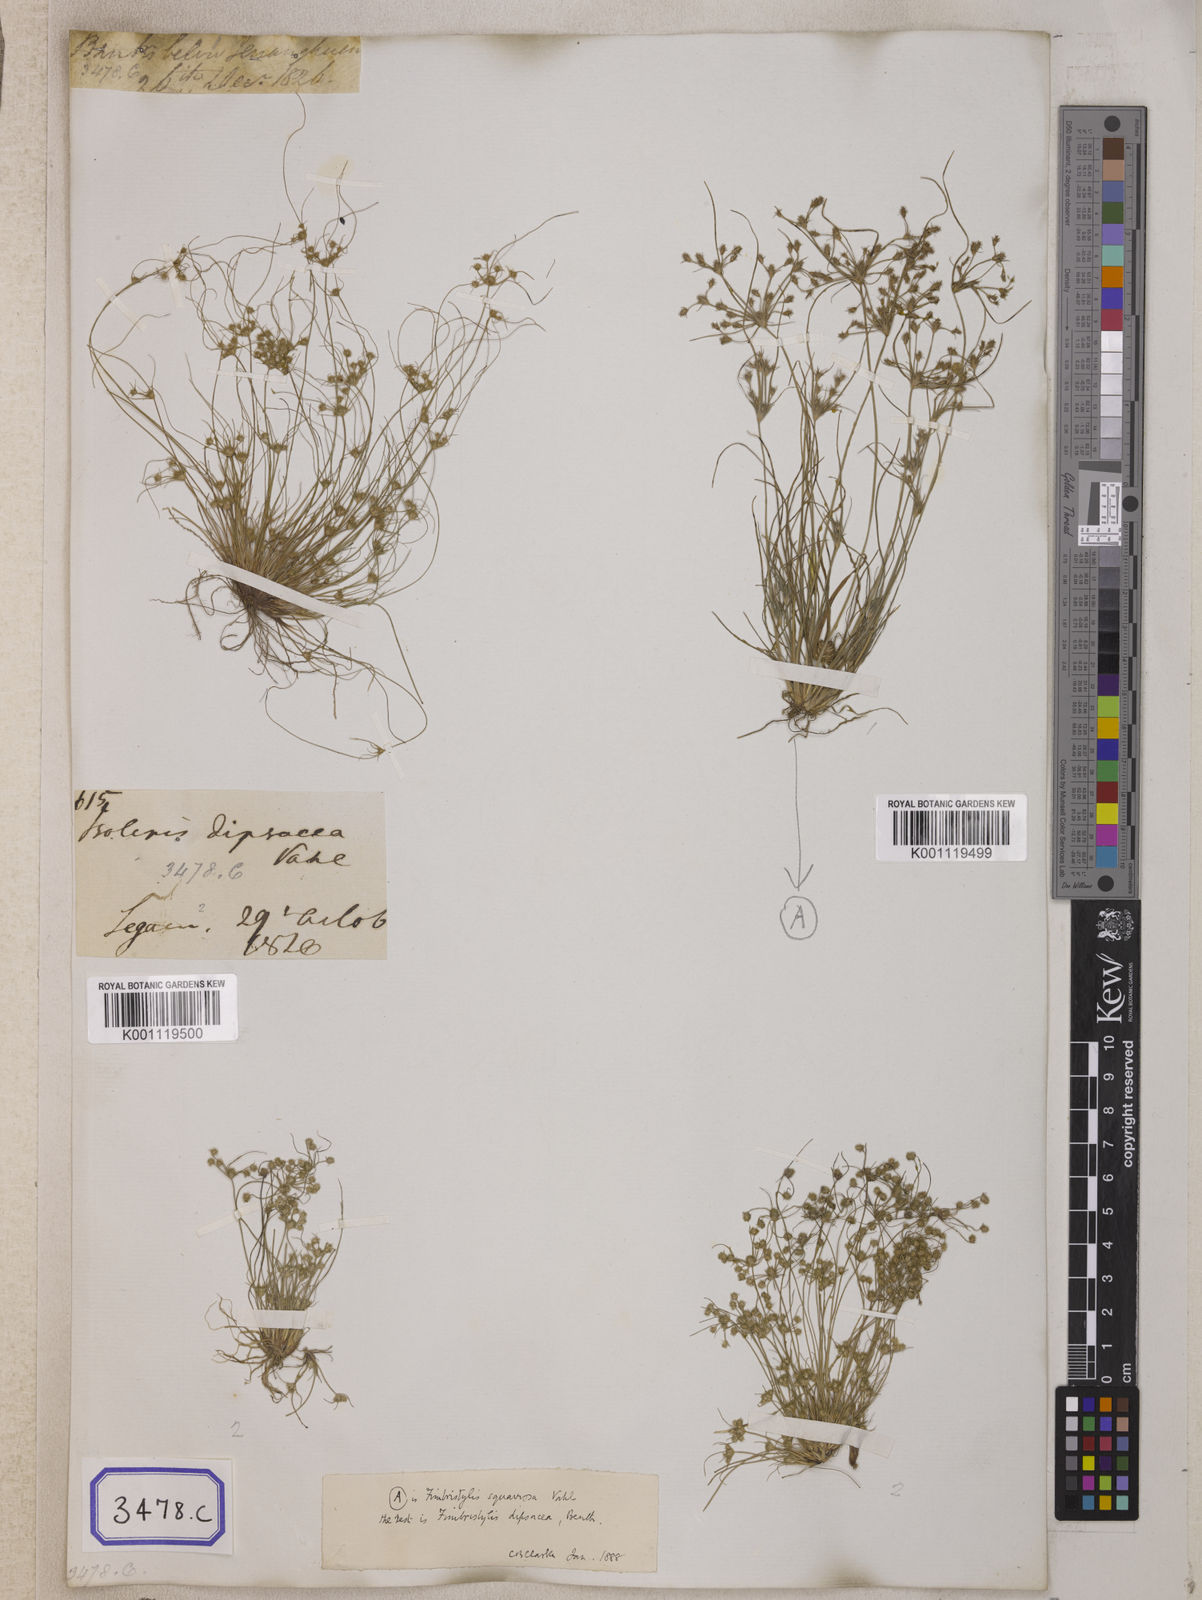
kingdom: Plantae
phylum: Tracheophyta
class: Liliopsida
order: Poales
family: Cyperaceae
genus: Isolepis
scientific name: Isolepis
